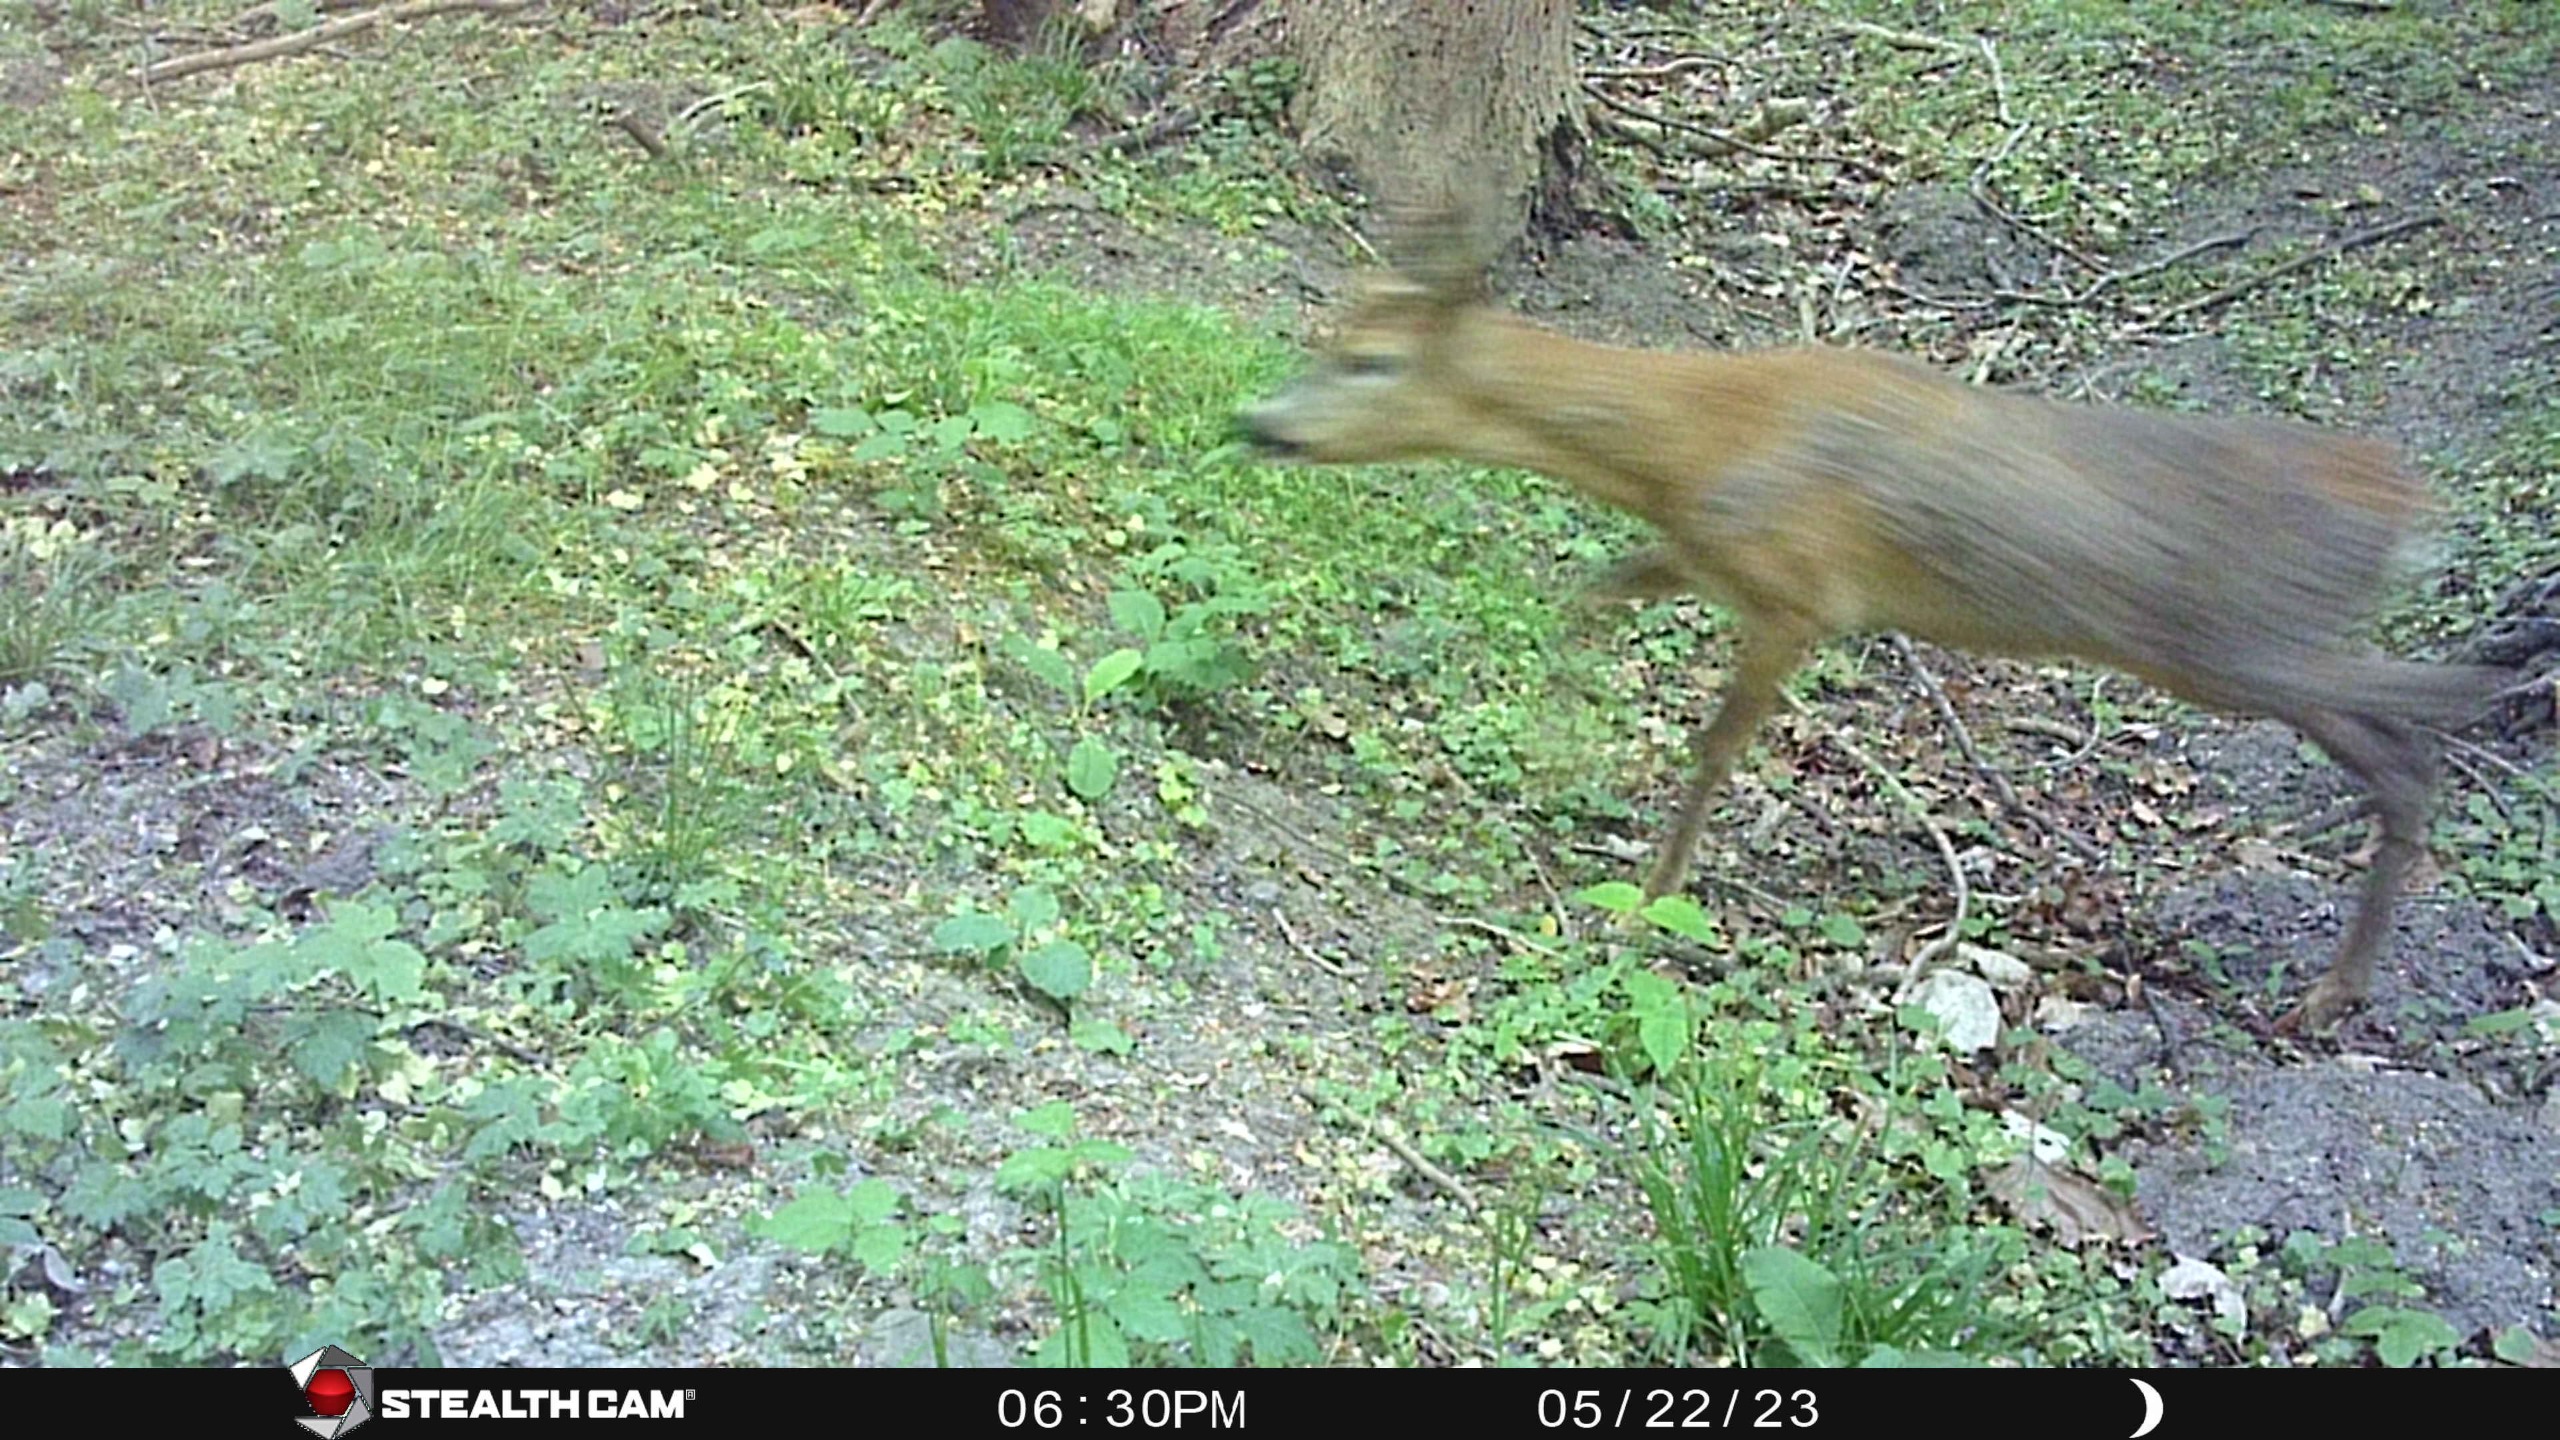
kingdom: Animalia
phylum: Chordata
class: Mammalia
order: Artiodactyla
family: Cervidae
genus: Capreolus
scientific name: Capreolus capreolus
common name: Rådyr
